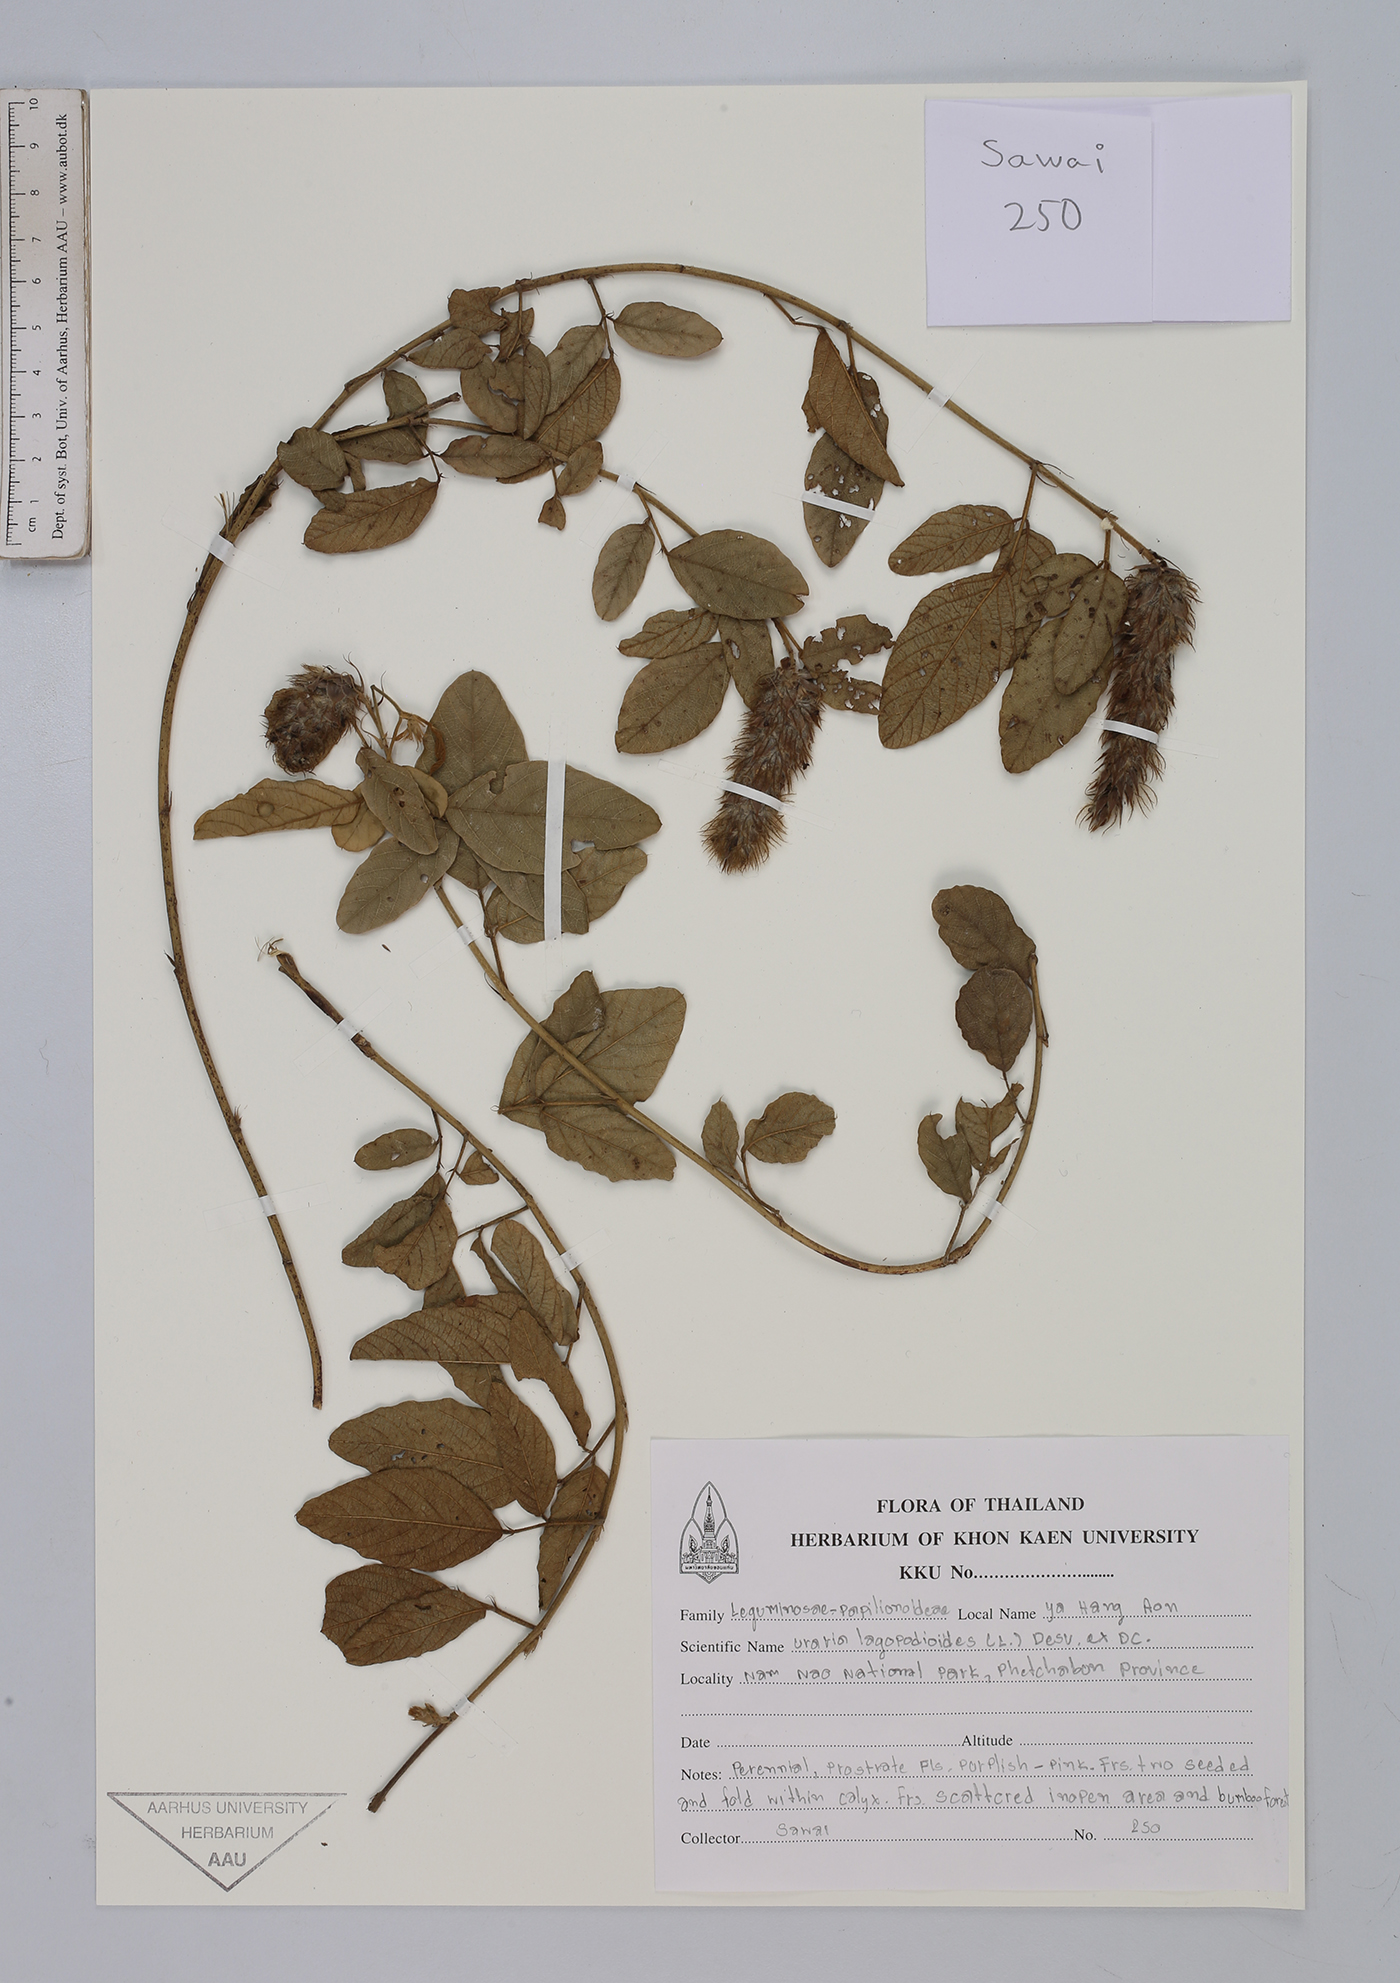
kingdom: Plantae
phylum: Tracheophyta
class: Magnoliopsida
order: Fabales
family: Fabaceae
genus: Uraria
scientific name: Uraria lagopodoides
